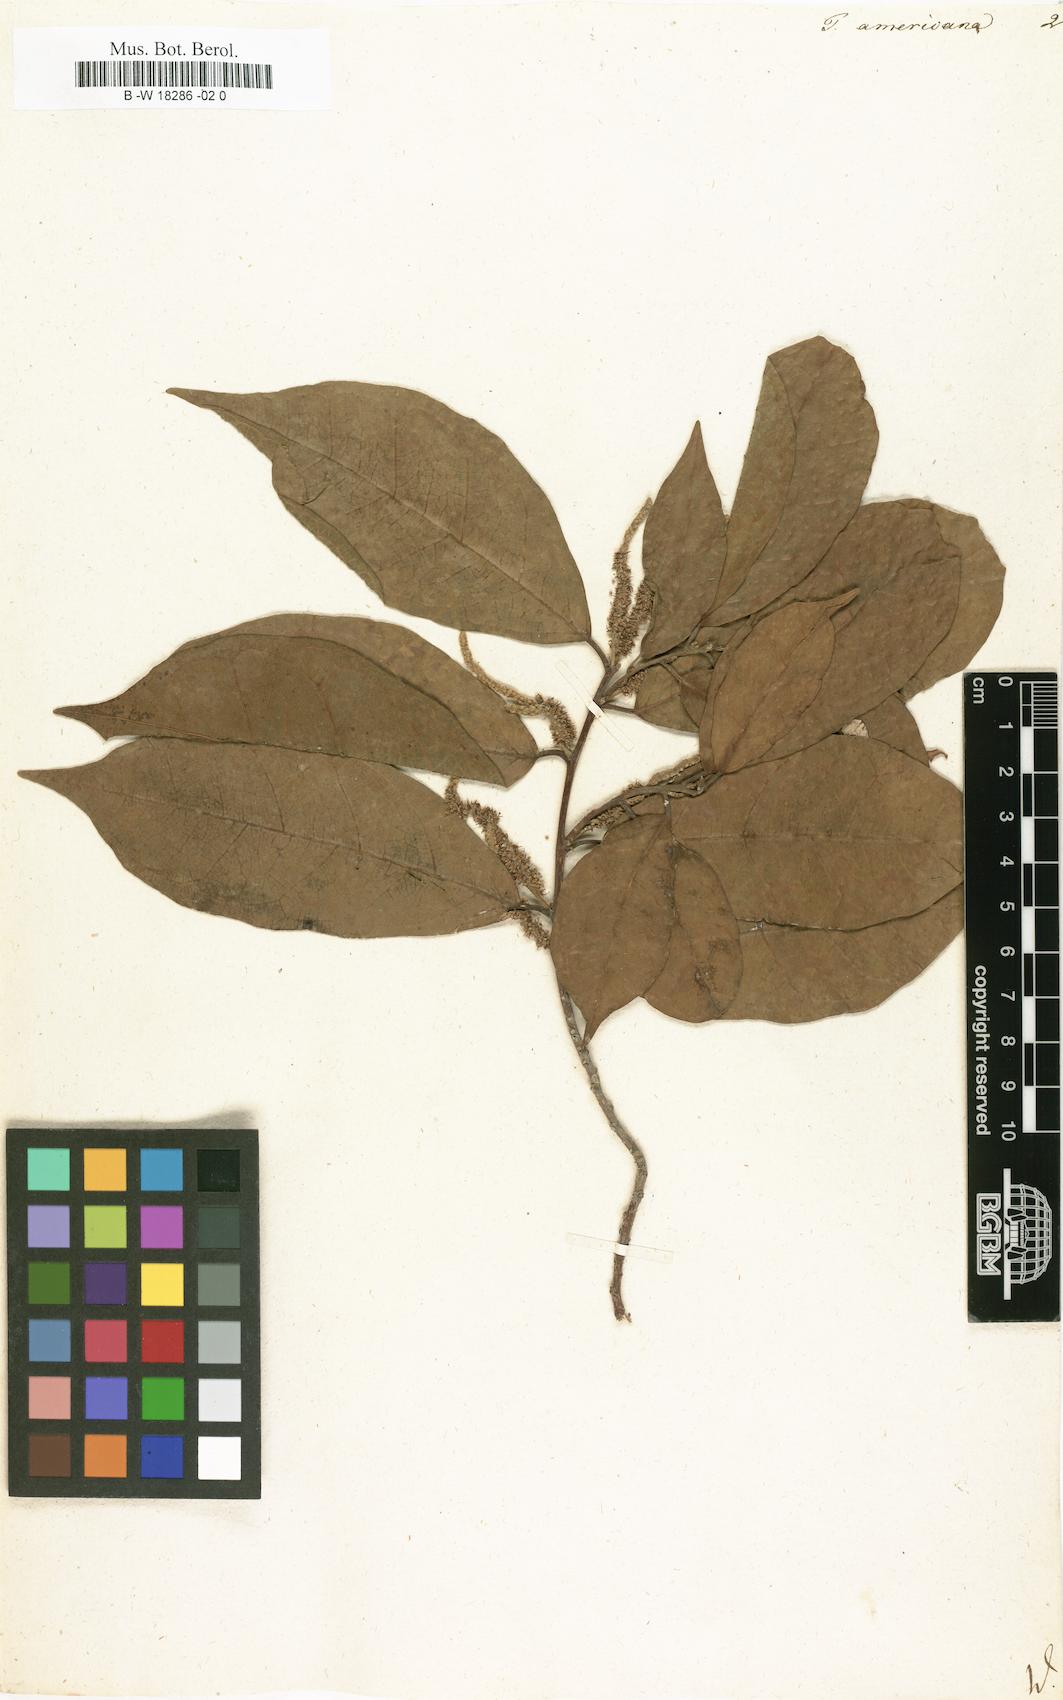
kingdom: Plantae
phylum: Tracheophyta
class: Magnoliopsida
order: Rosales
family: Moraceae
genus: Trophis
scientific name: Trophis racemosa
